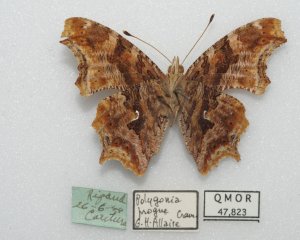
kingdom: Animalia
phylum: Arthropoda
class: Insecta
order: Lepidoptera
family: Nymphalidae
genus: Polygonia
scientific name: Polygonia comma
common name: Eastern Comma
